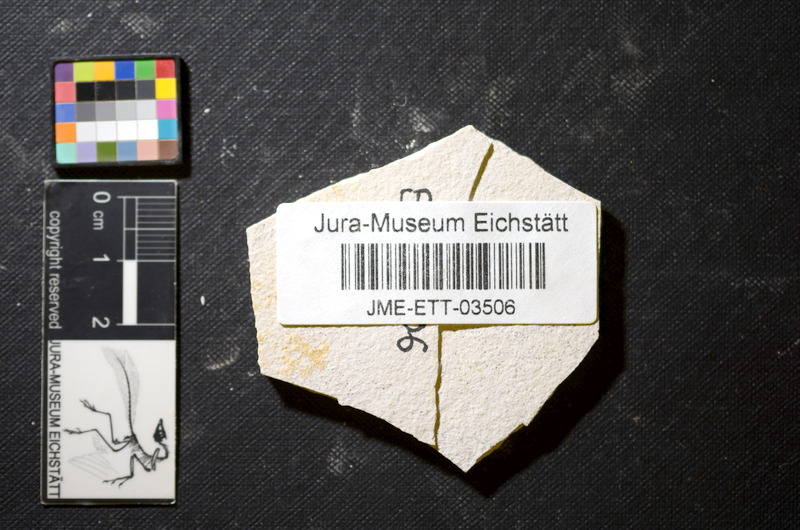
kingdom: Animalia
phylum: Chordata
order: Salmoniformes
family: Orthogonikleithridae
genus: Orthogonikleithrus
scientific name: Orthogonikleithrus hoelli
